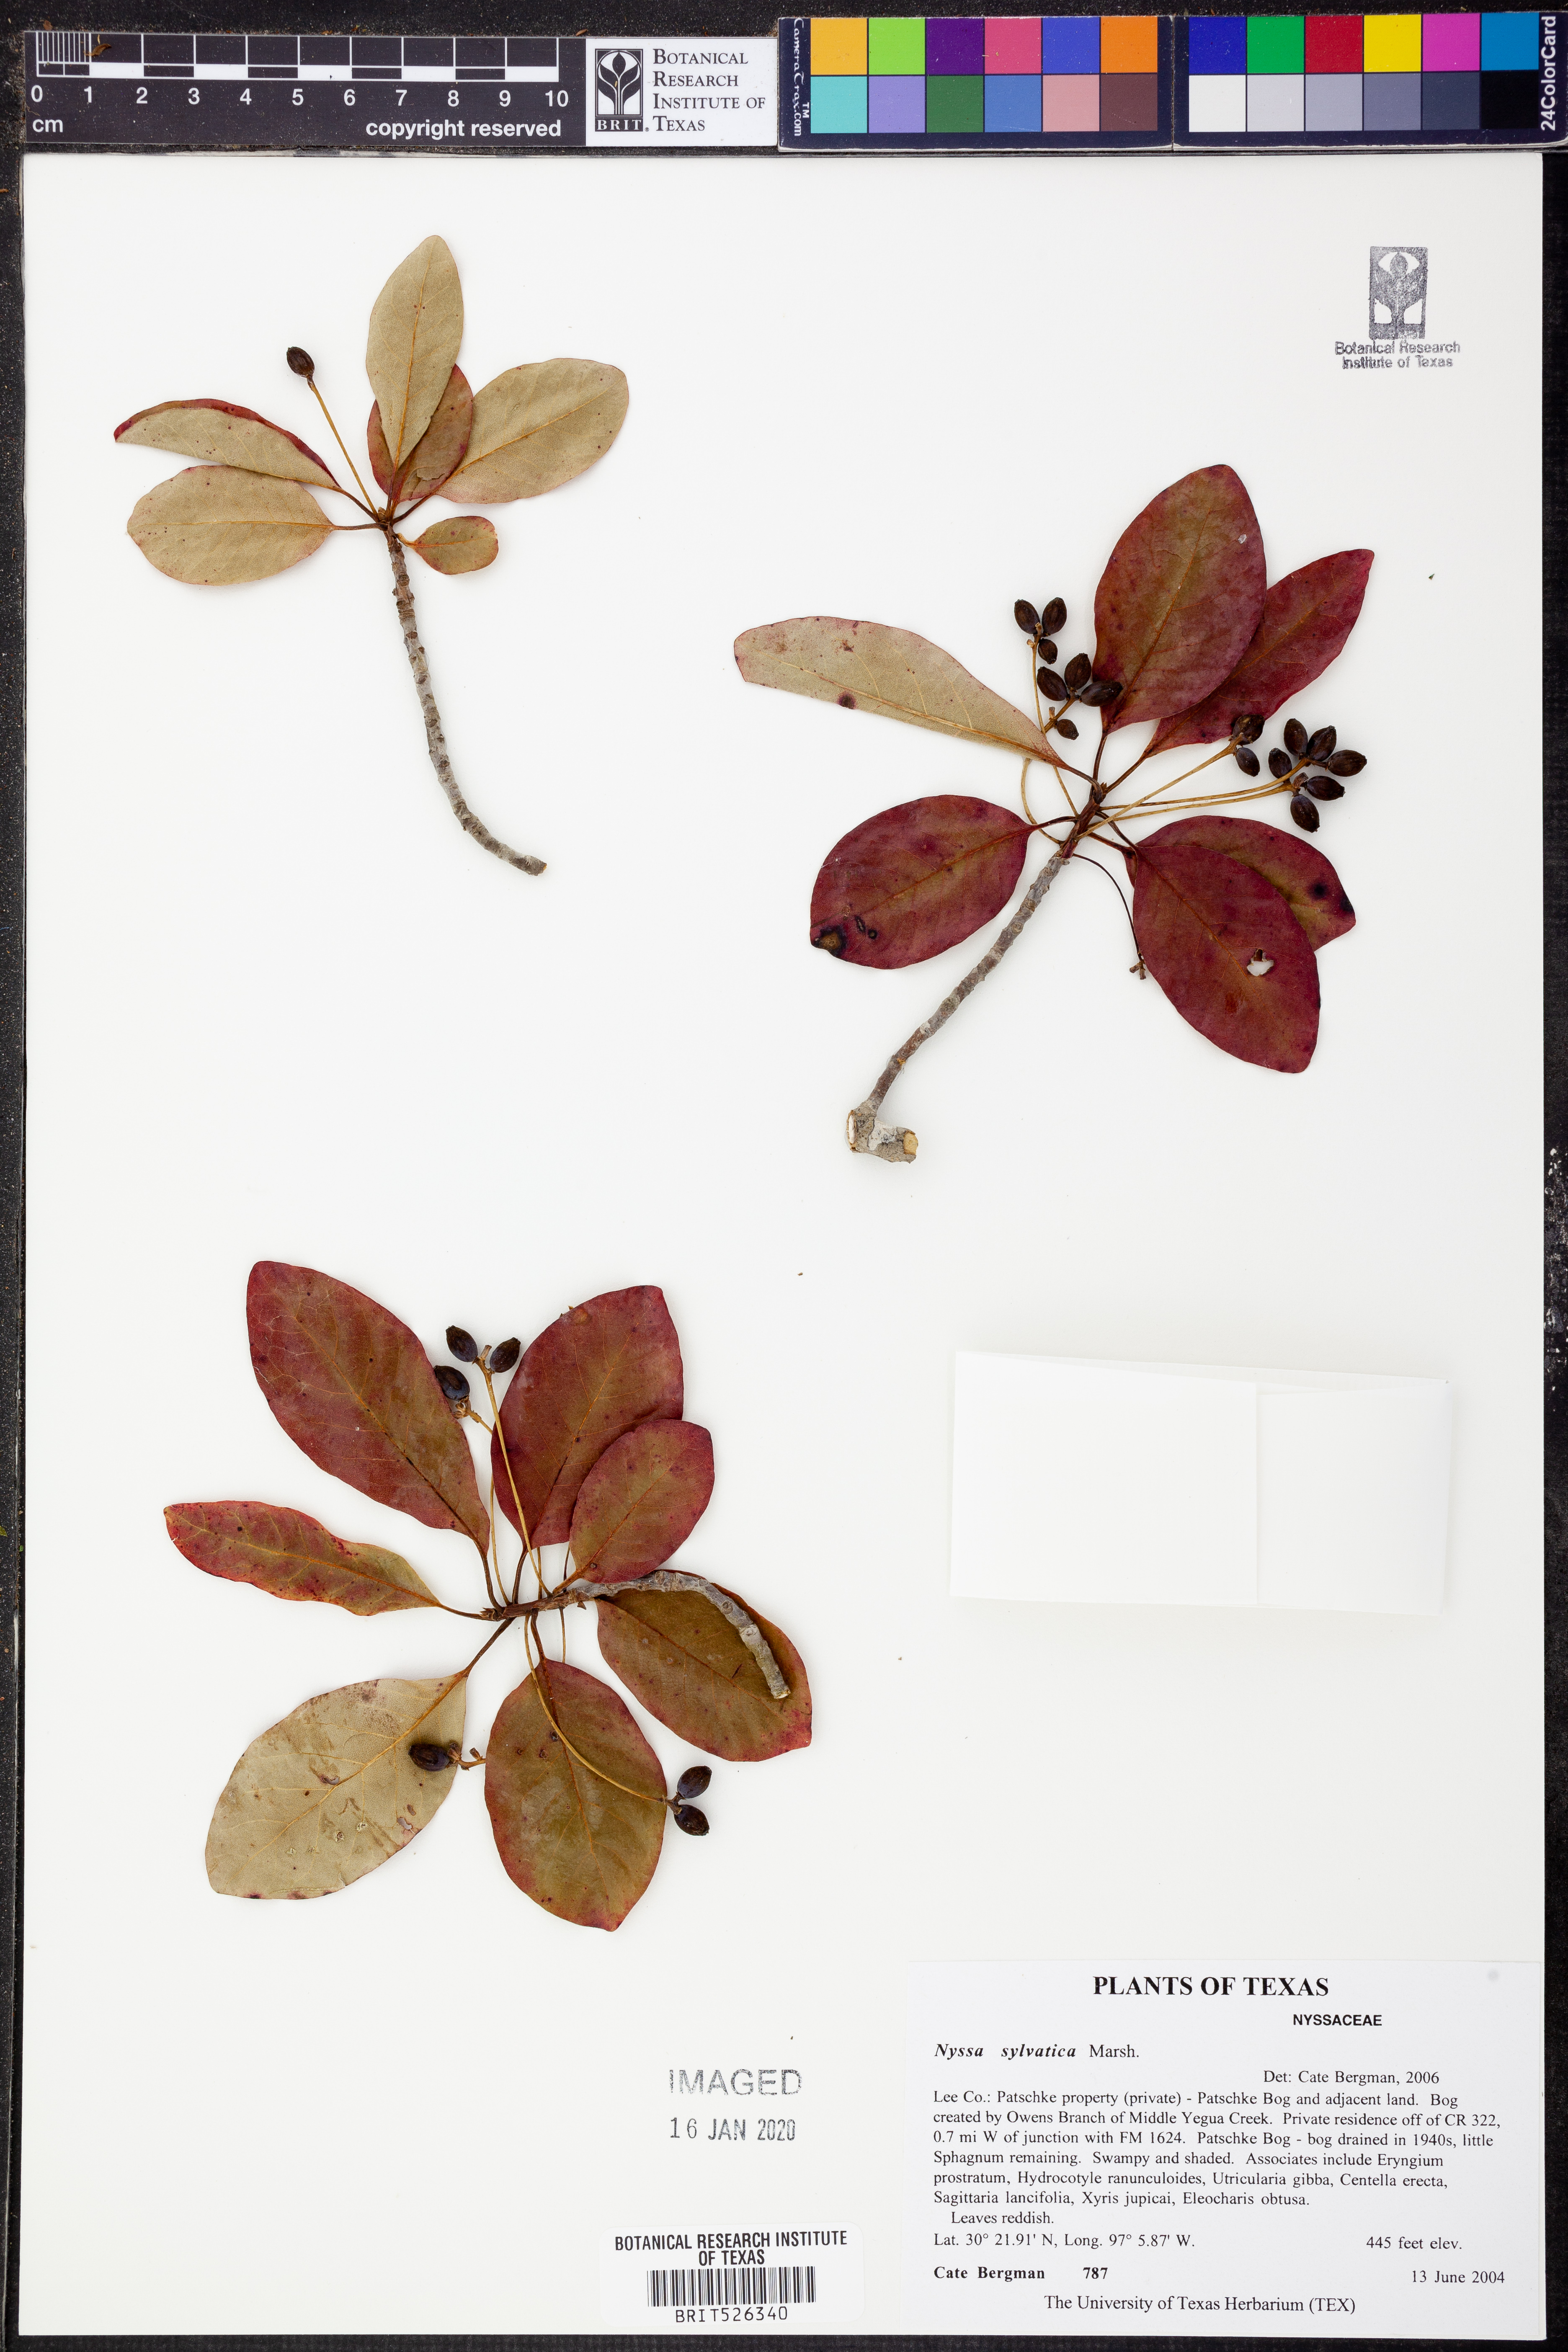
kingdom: Plantae
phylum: Tracheophyta
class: Magnoliopsida
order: Cornales
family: Nyssaceae
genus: Nyssa
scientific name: Nyssa sylvatica
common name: Black tupelo
